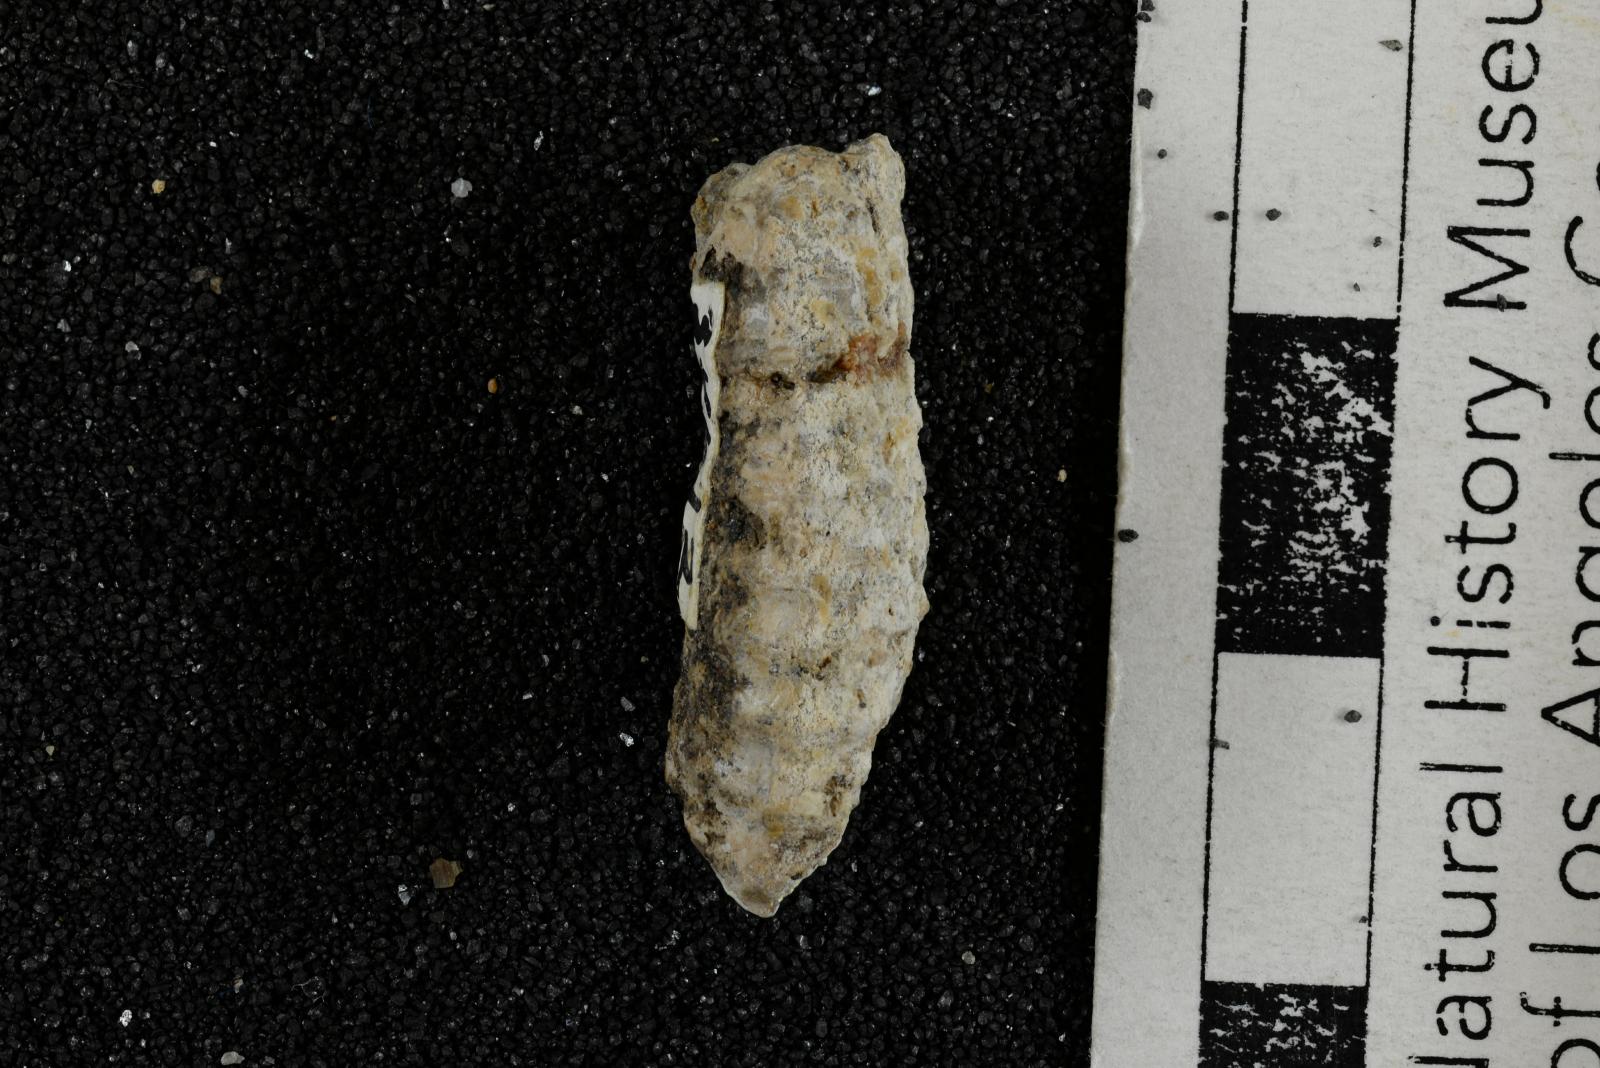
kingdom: Animalia
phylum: Mollusca
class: Cephalopoda
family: Nostoceratidae
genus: Nostoceras
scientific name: Nostoceras
